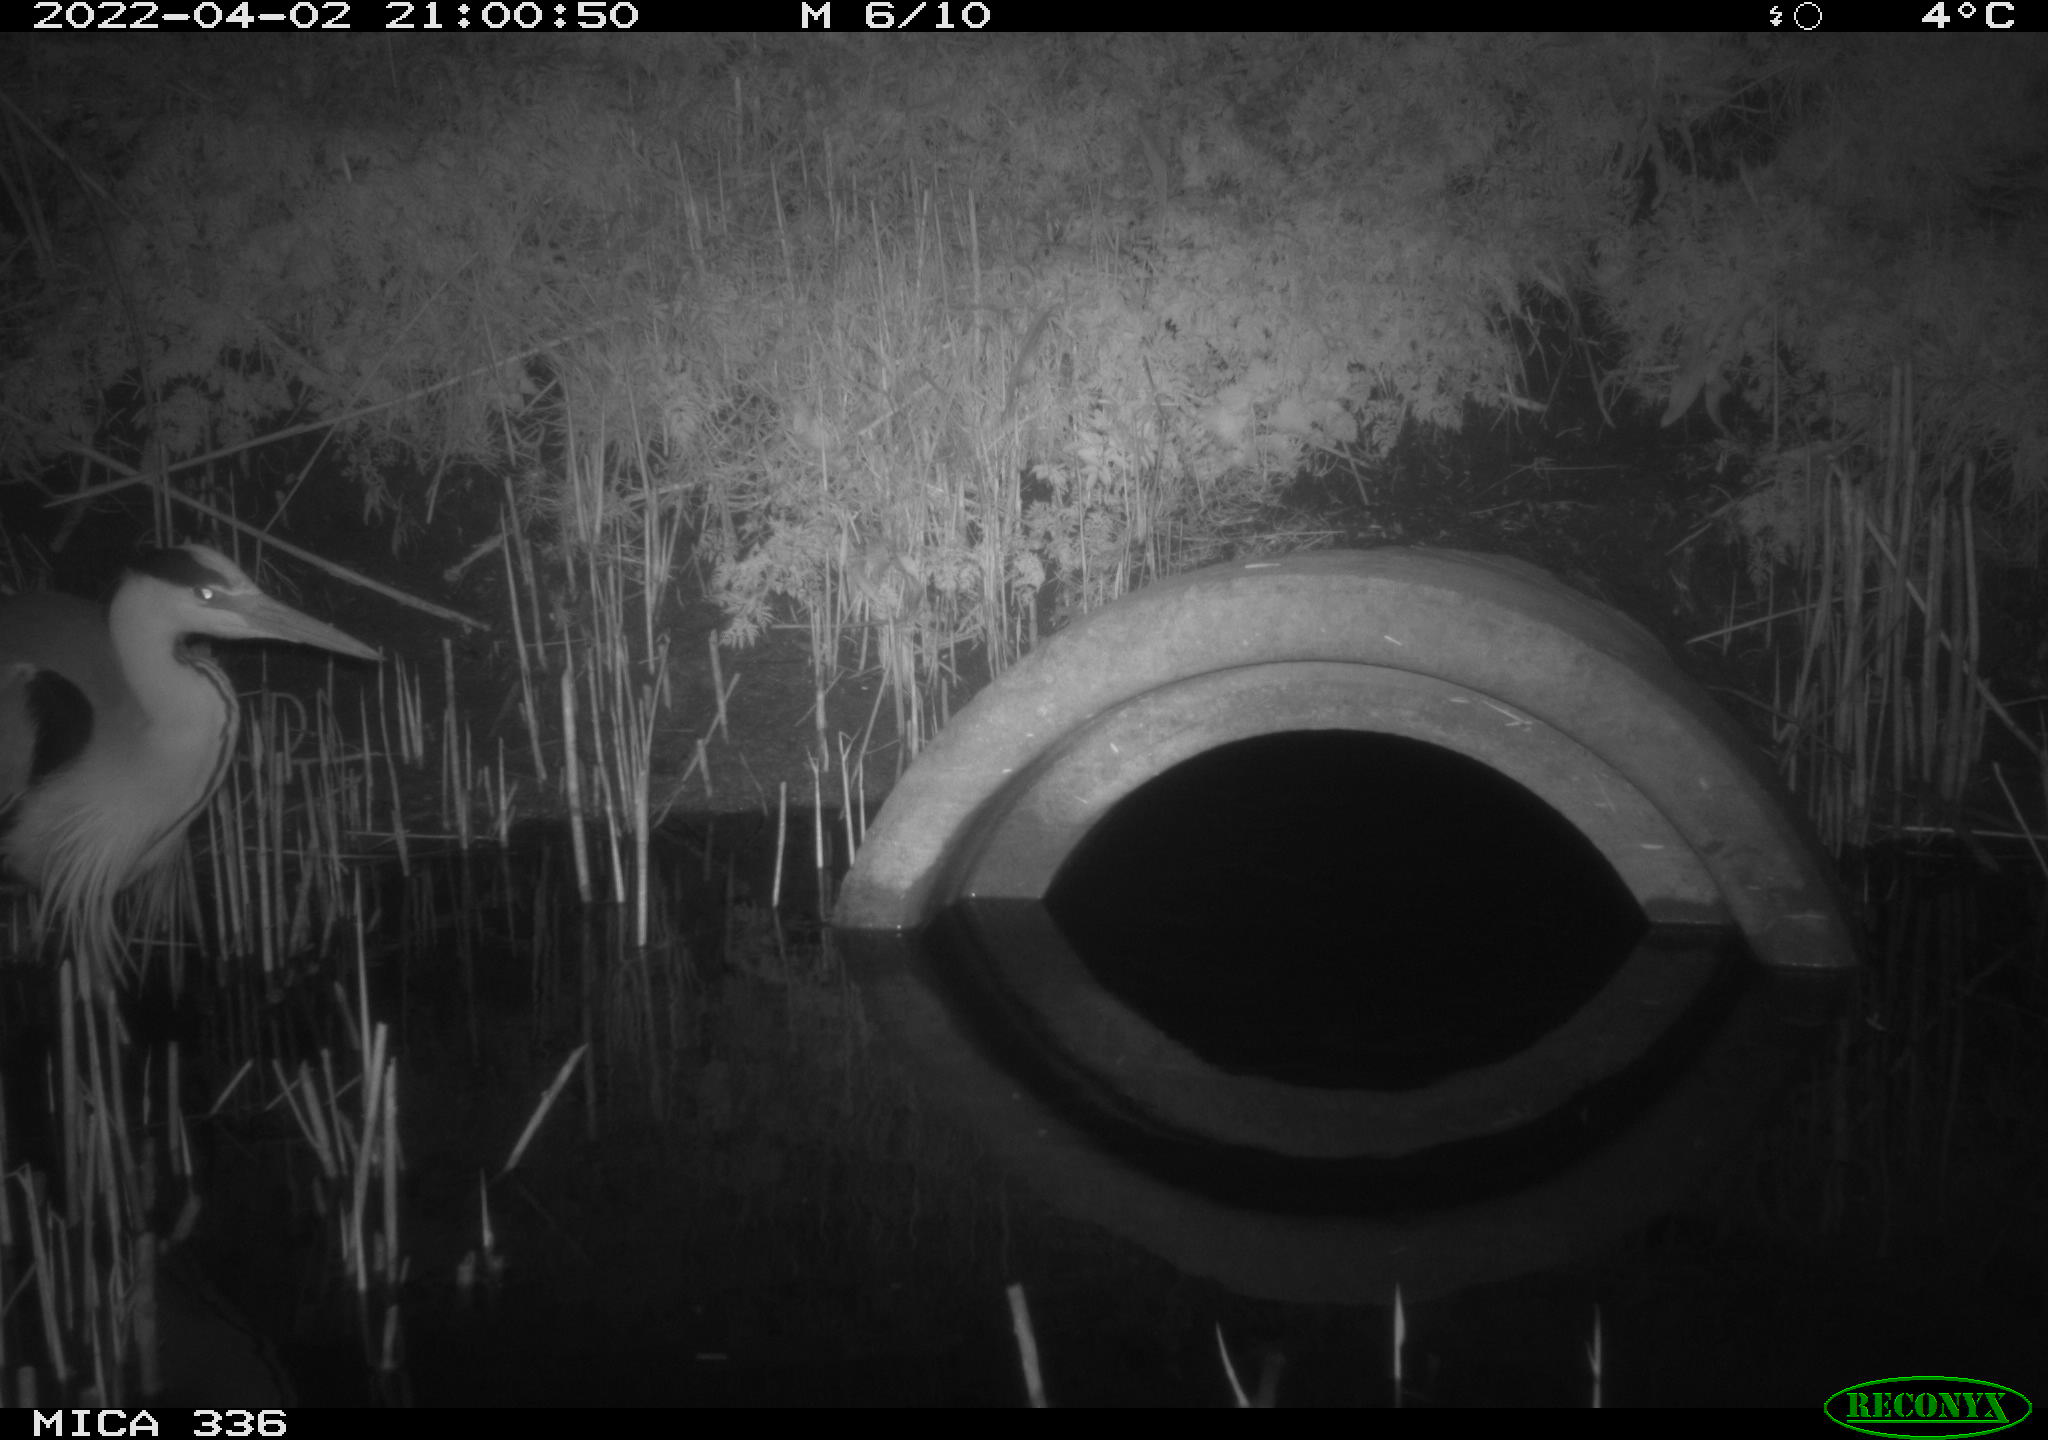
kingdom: Animalia
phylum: Chordata
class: Aves
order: Pelecaniformes
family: Ardeidae
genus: Ardea
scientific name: Ardea cinerea
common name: Grey heron
